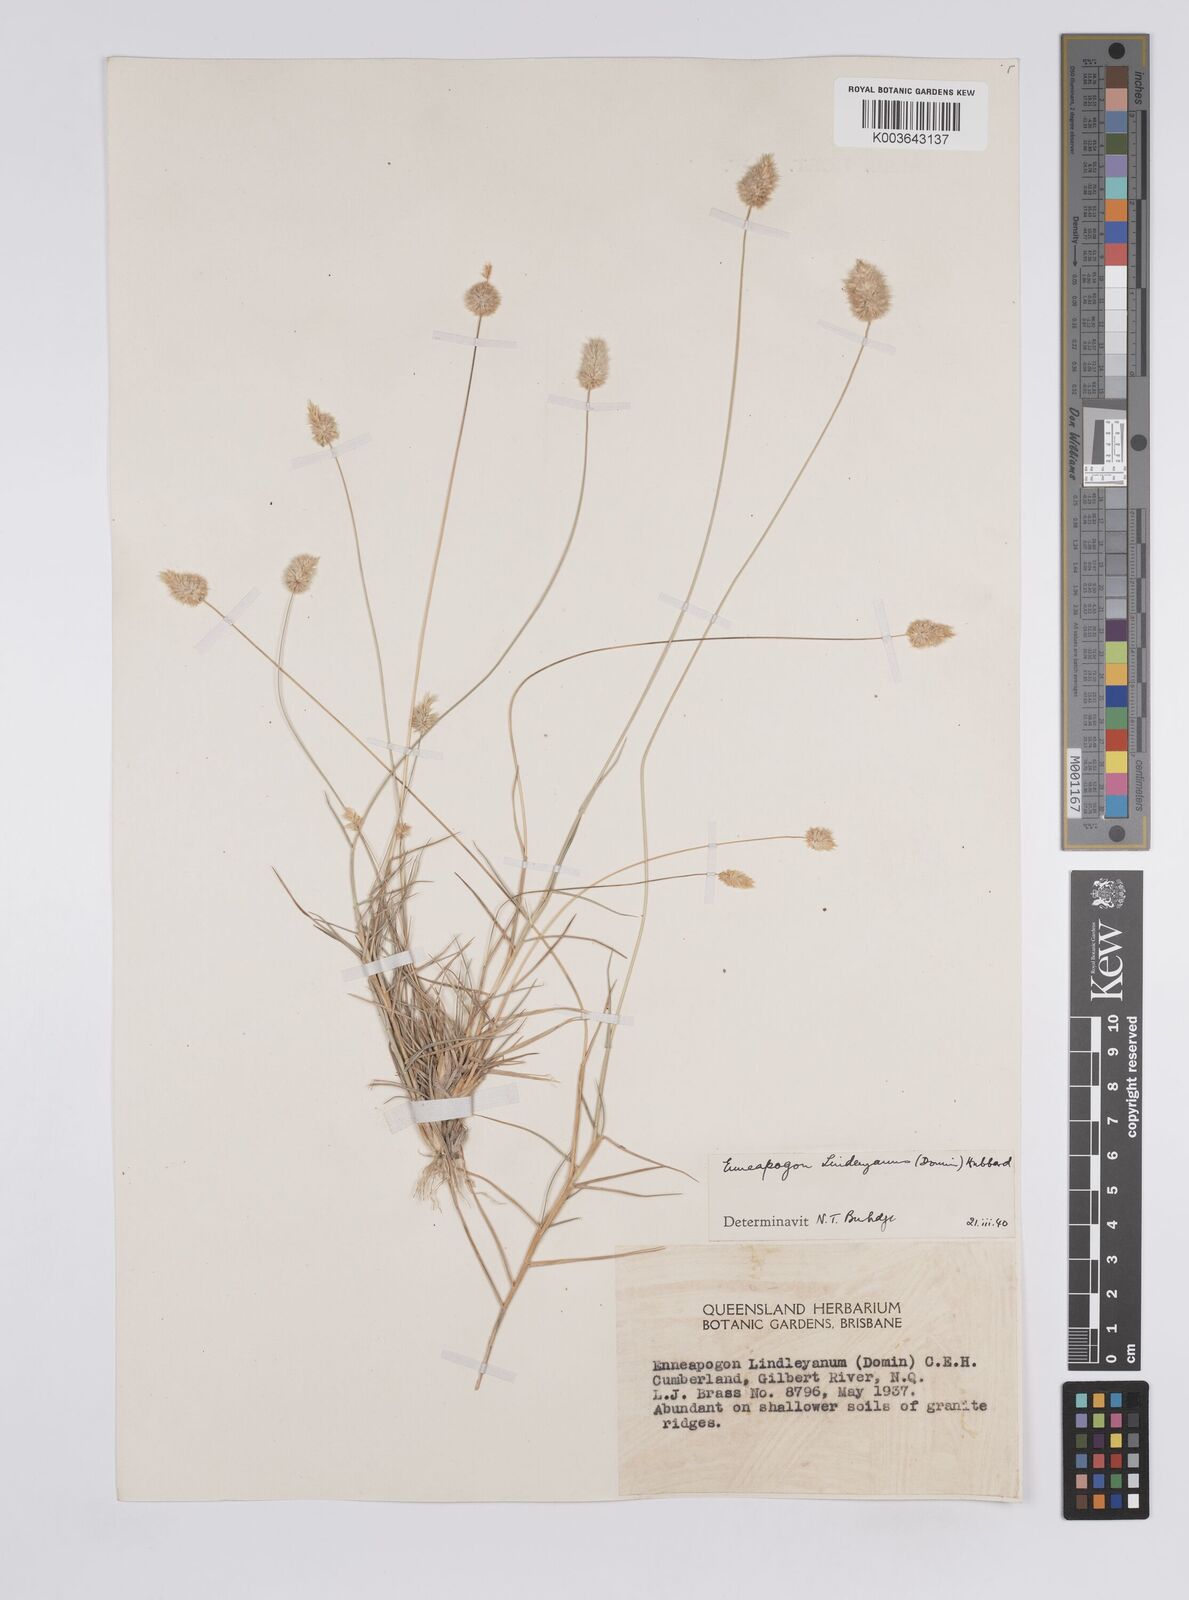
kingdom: Plantae
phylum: Tracheophyta
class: Liliopsida
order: Poales
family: Poaceae
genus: Enneapogon
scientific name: Enneapogon lindleyanus
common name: Conetop nineawn
